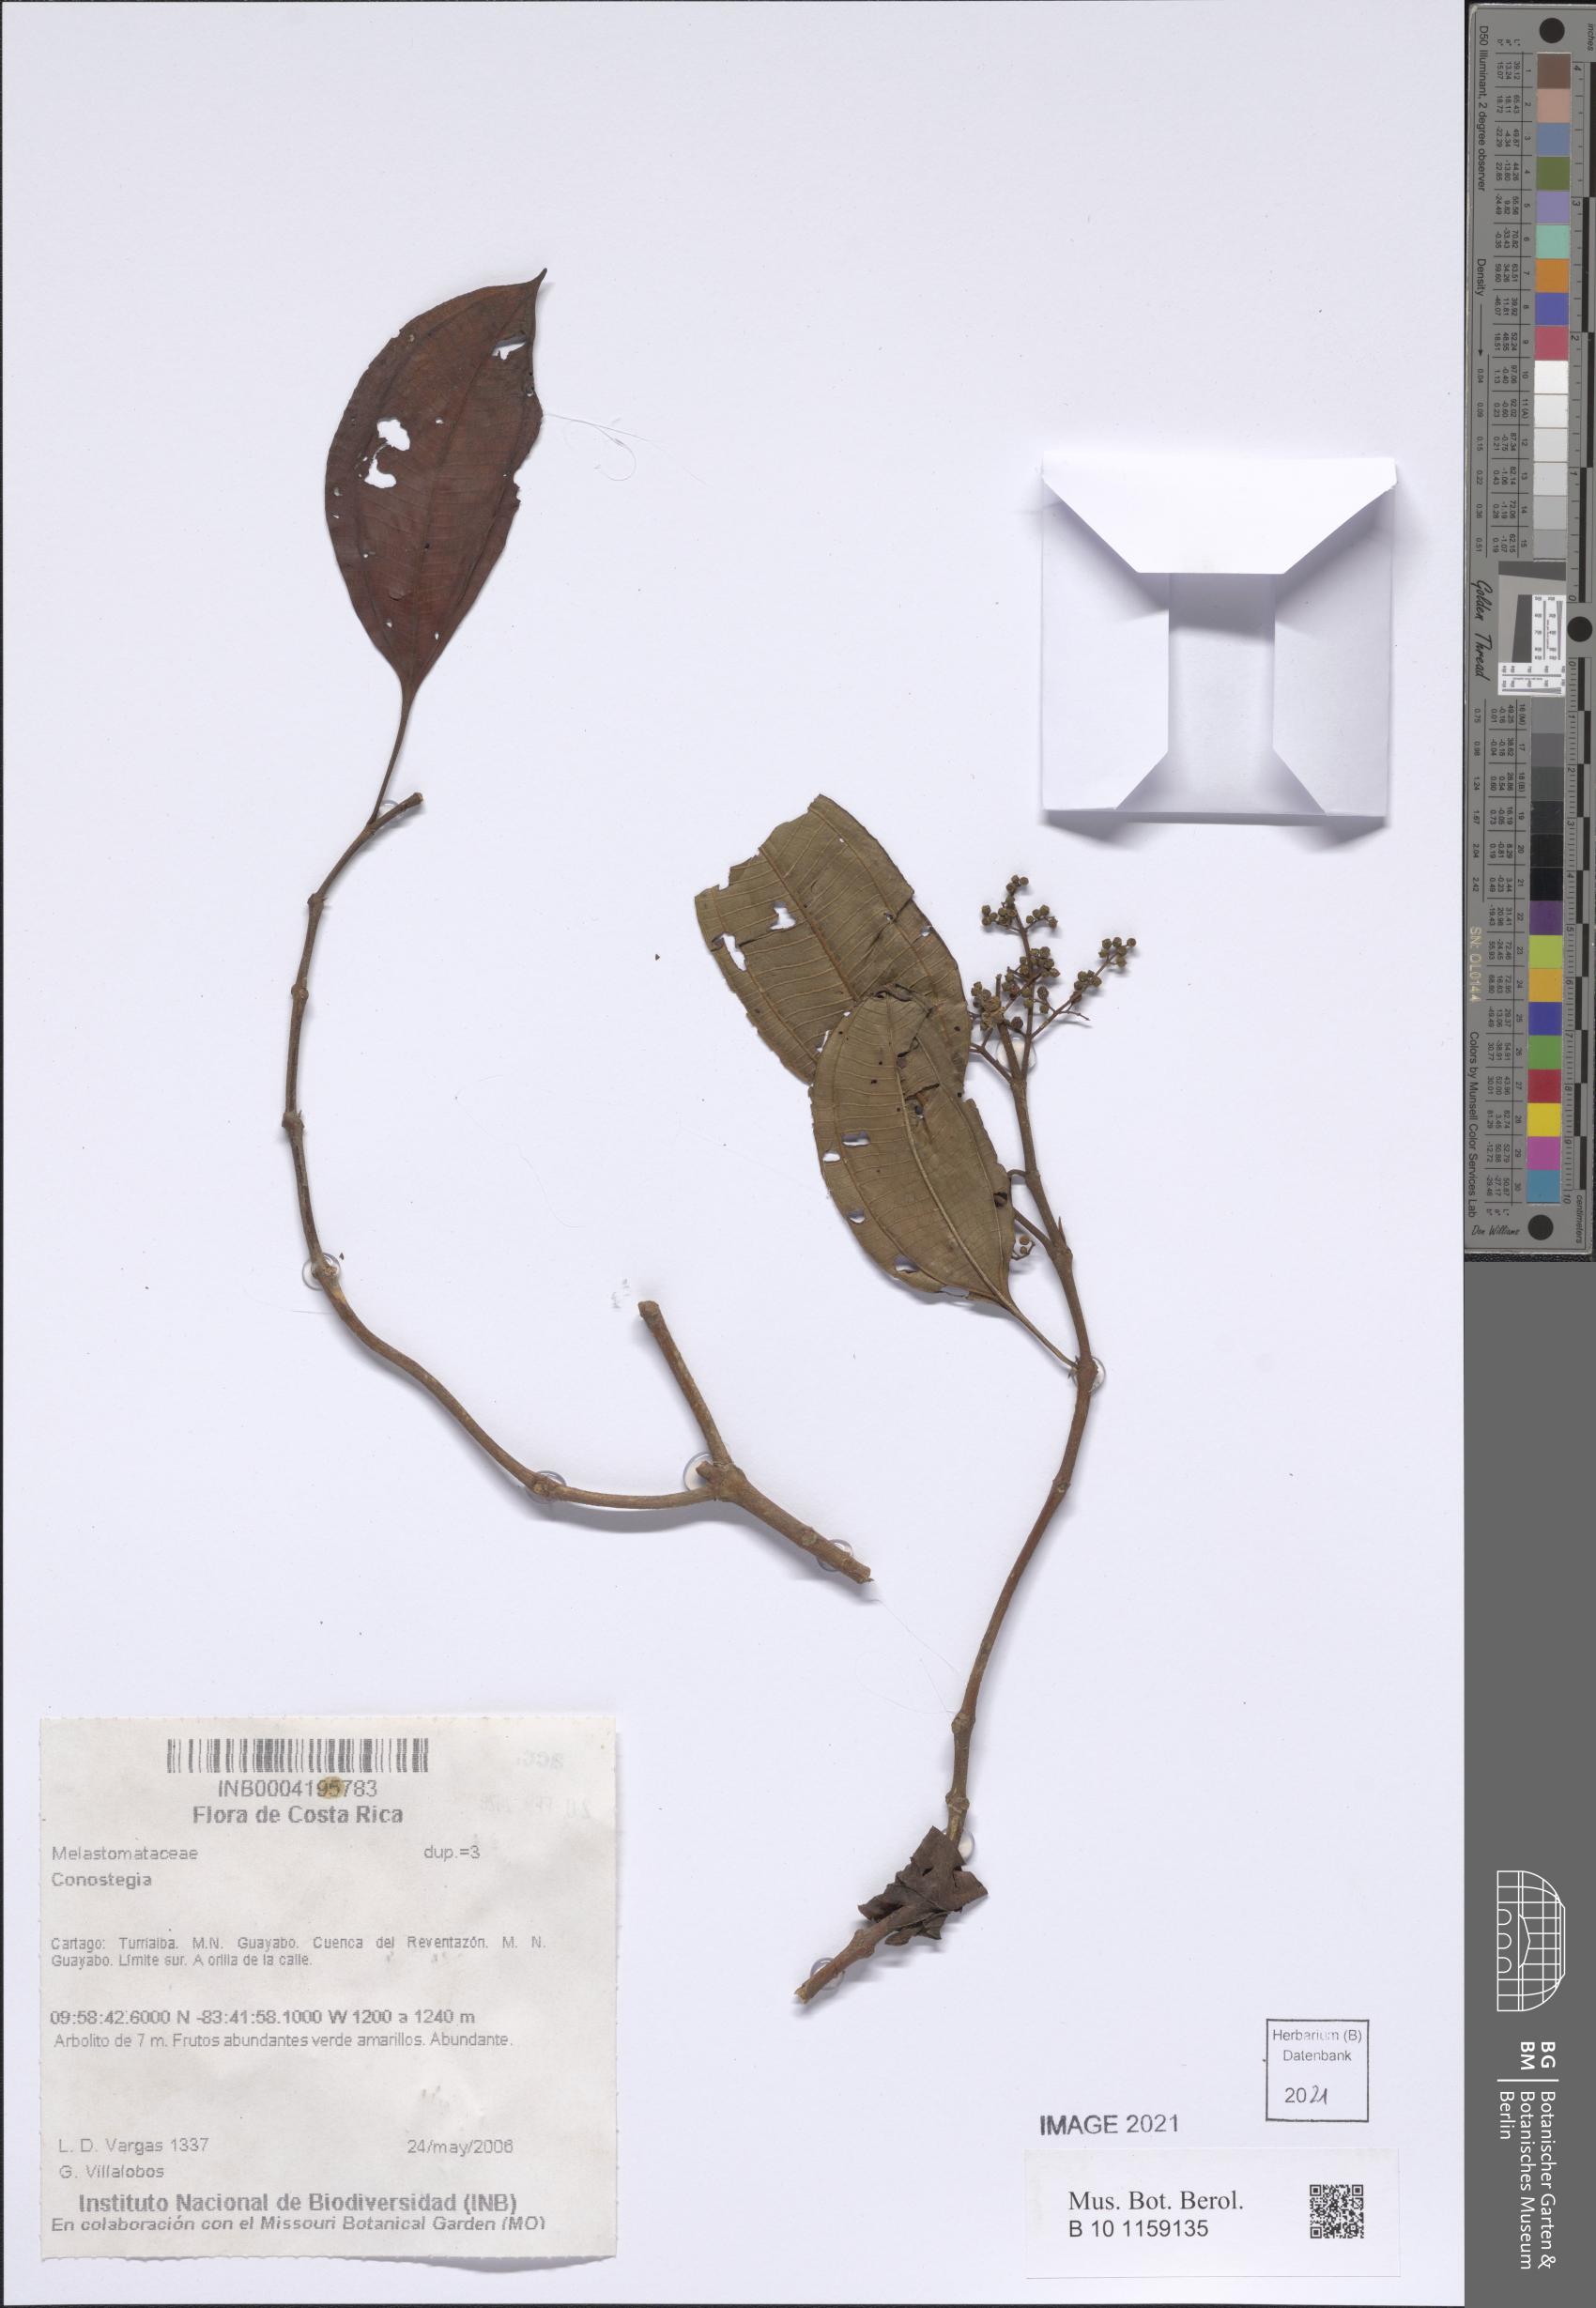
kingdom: Plantae
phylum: Tracheophyta
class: Magnoliopsida
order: Myrtales
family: Melastomataceae
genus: Miconia
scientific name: Miconia
